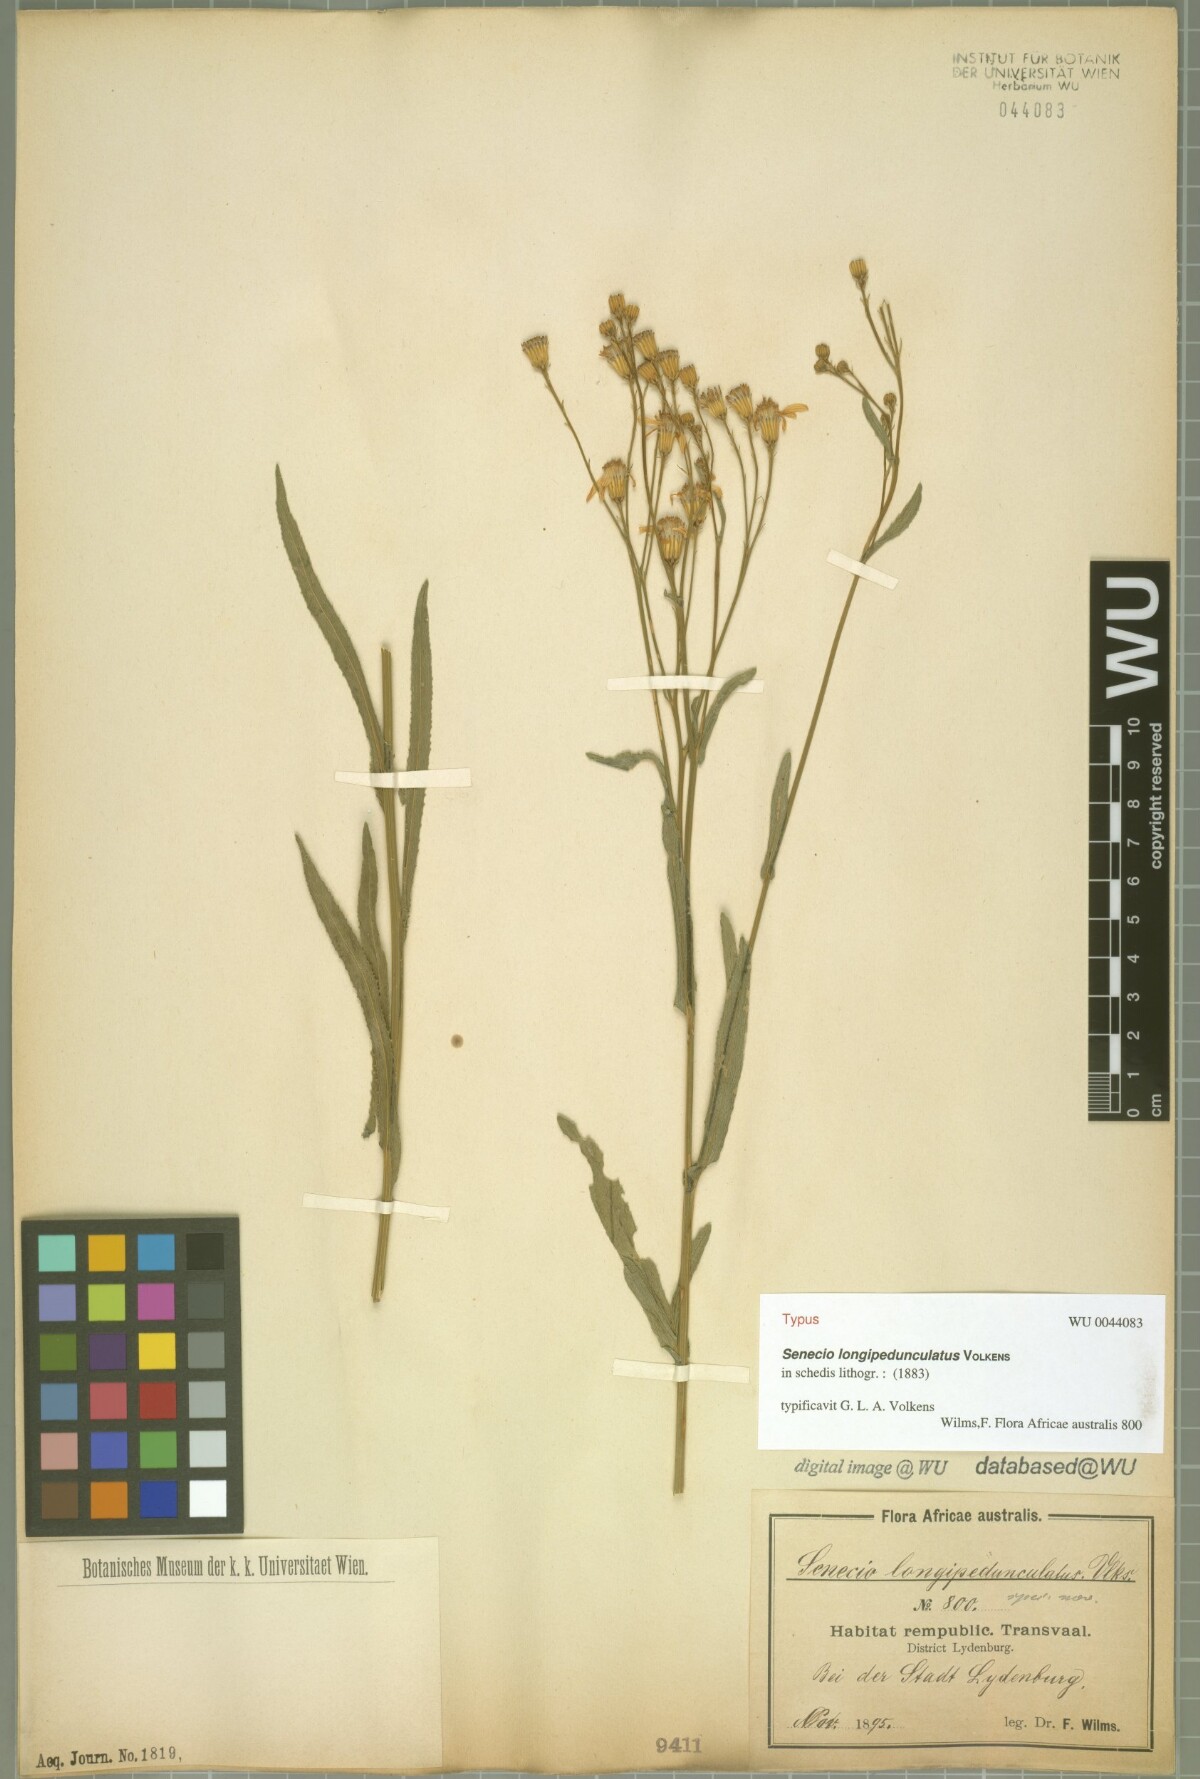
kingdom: Plantae
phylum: Tracheophyta
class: Magnoliopsida
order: Asterales
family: Asteraceae
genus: Senecio
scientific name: Senecio serra
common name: Tall ragwort
